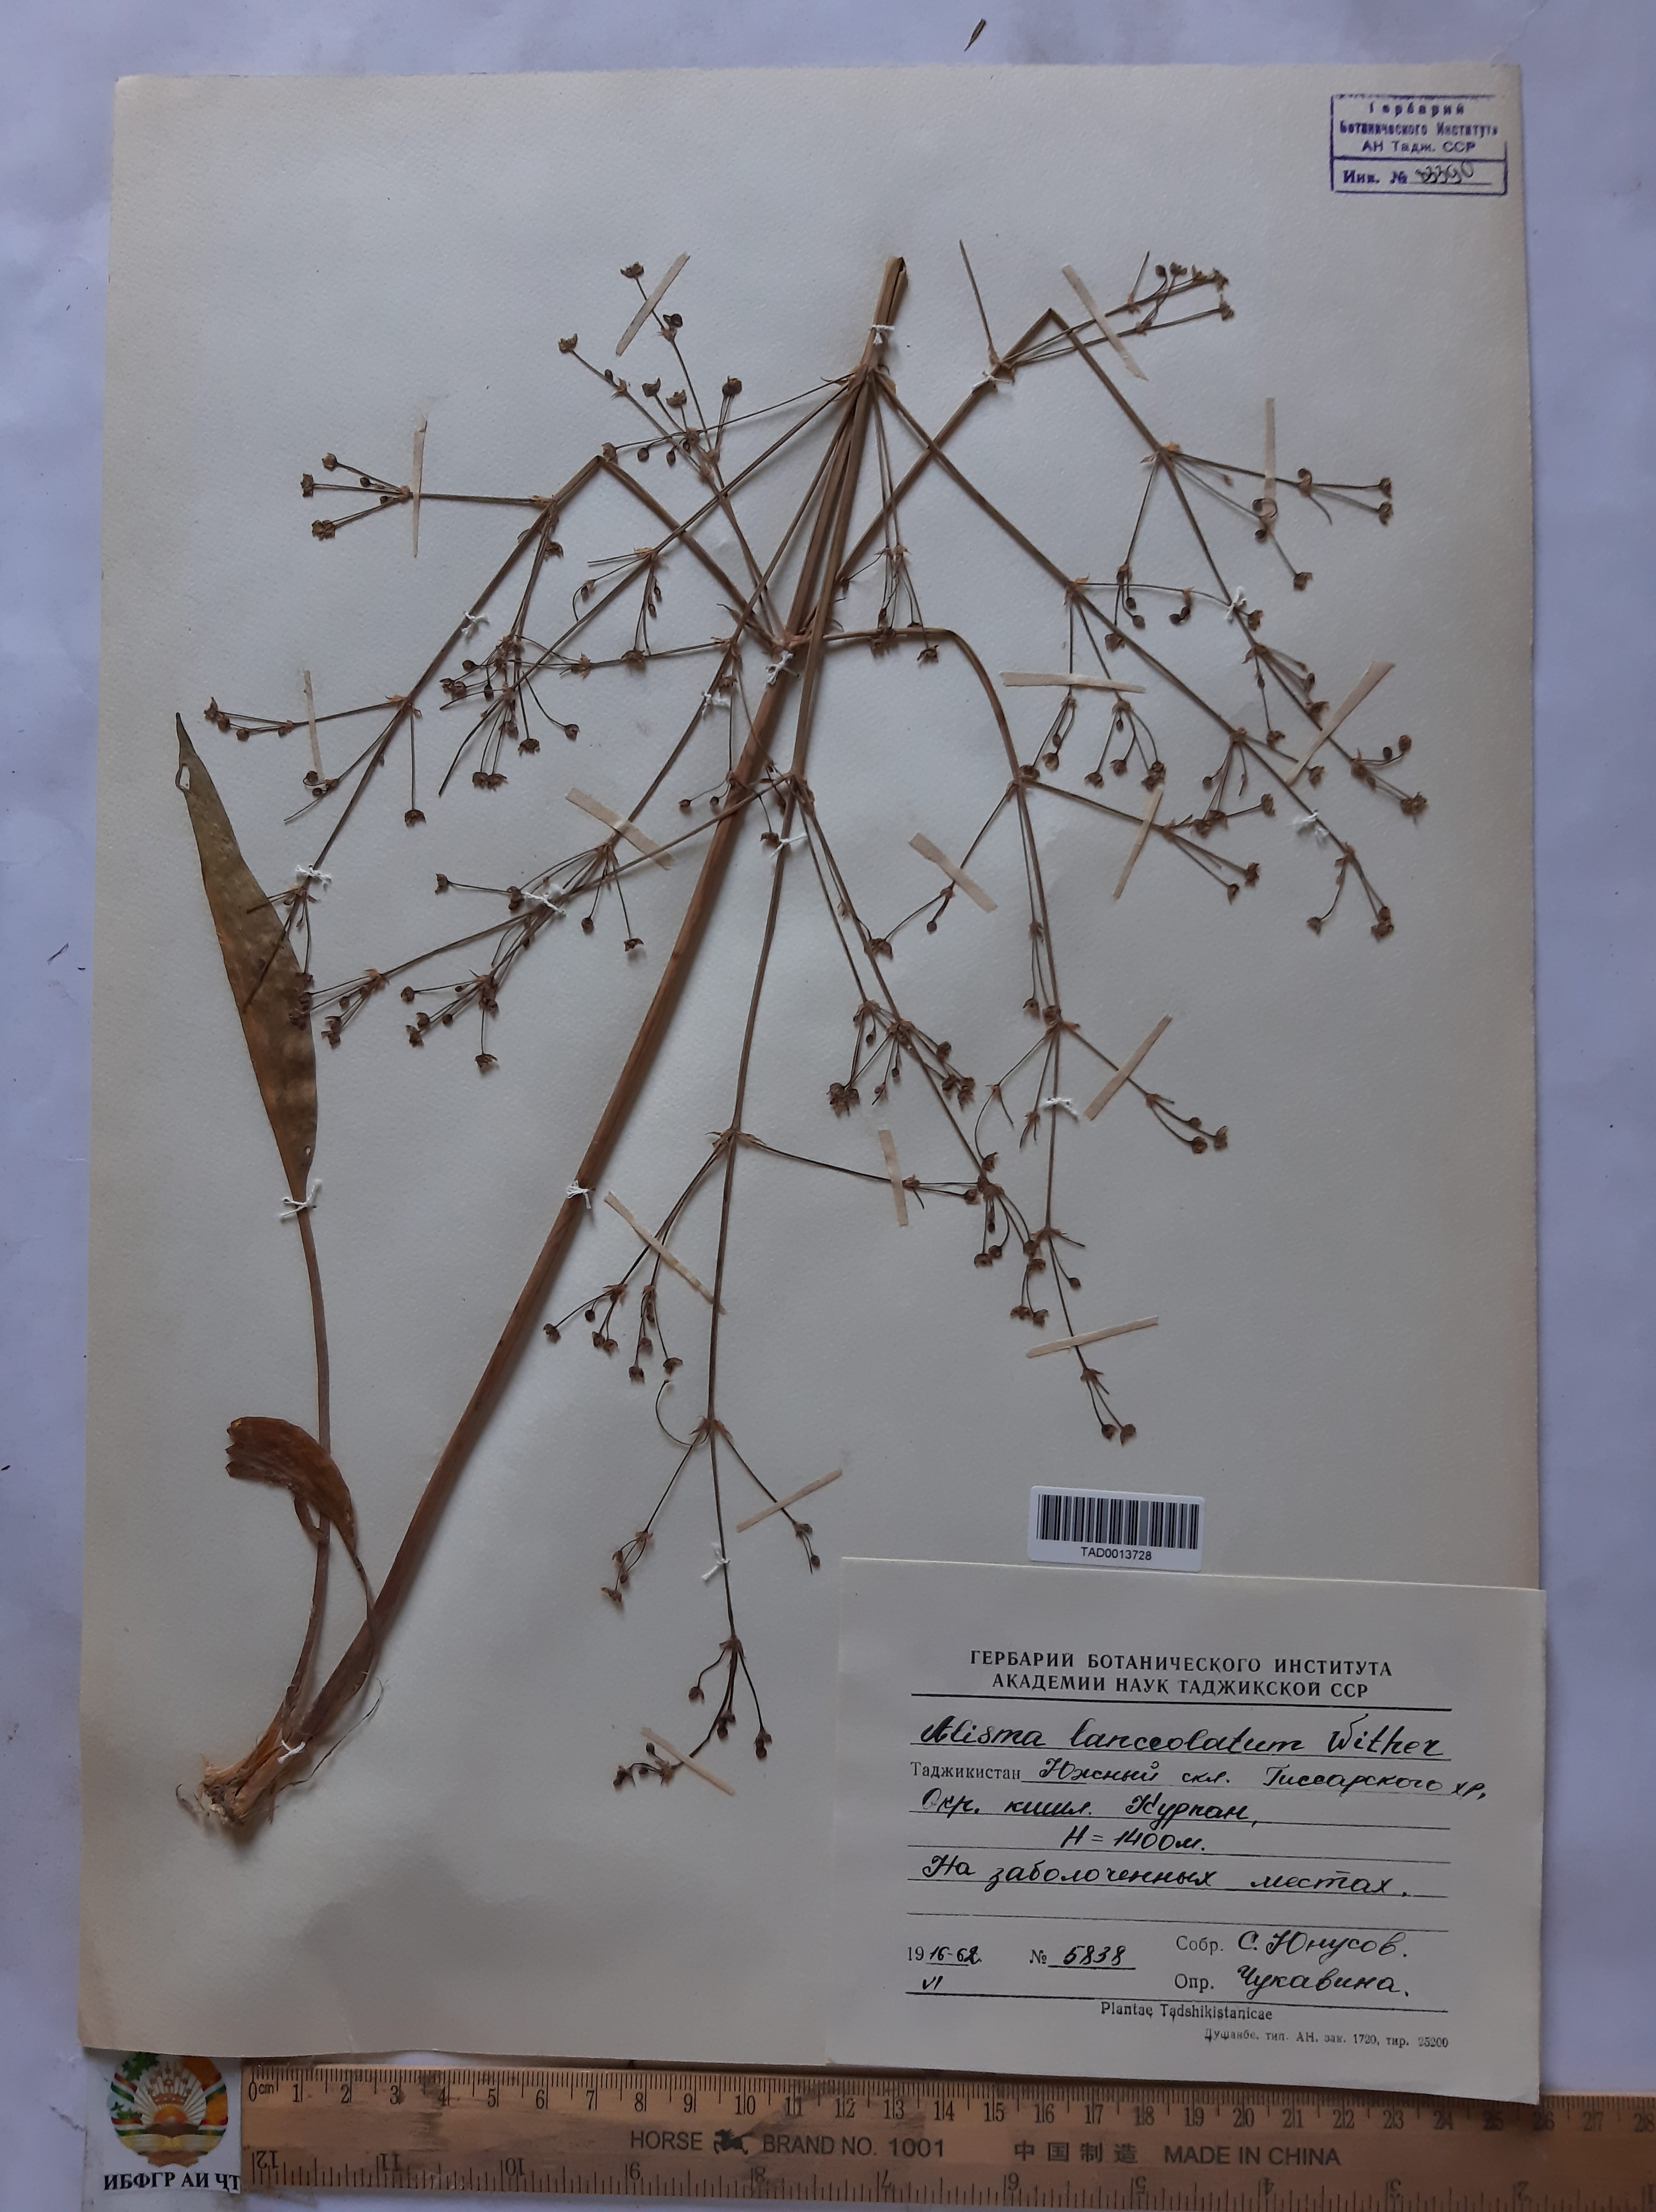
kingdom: Plantae
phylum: Tracheophyta
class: Liliopsida
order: Alismatales
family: Alismataceae
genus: Alisma
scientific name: Alisma lanceolatum
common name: Narrow-leaved water-plantain
